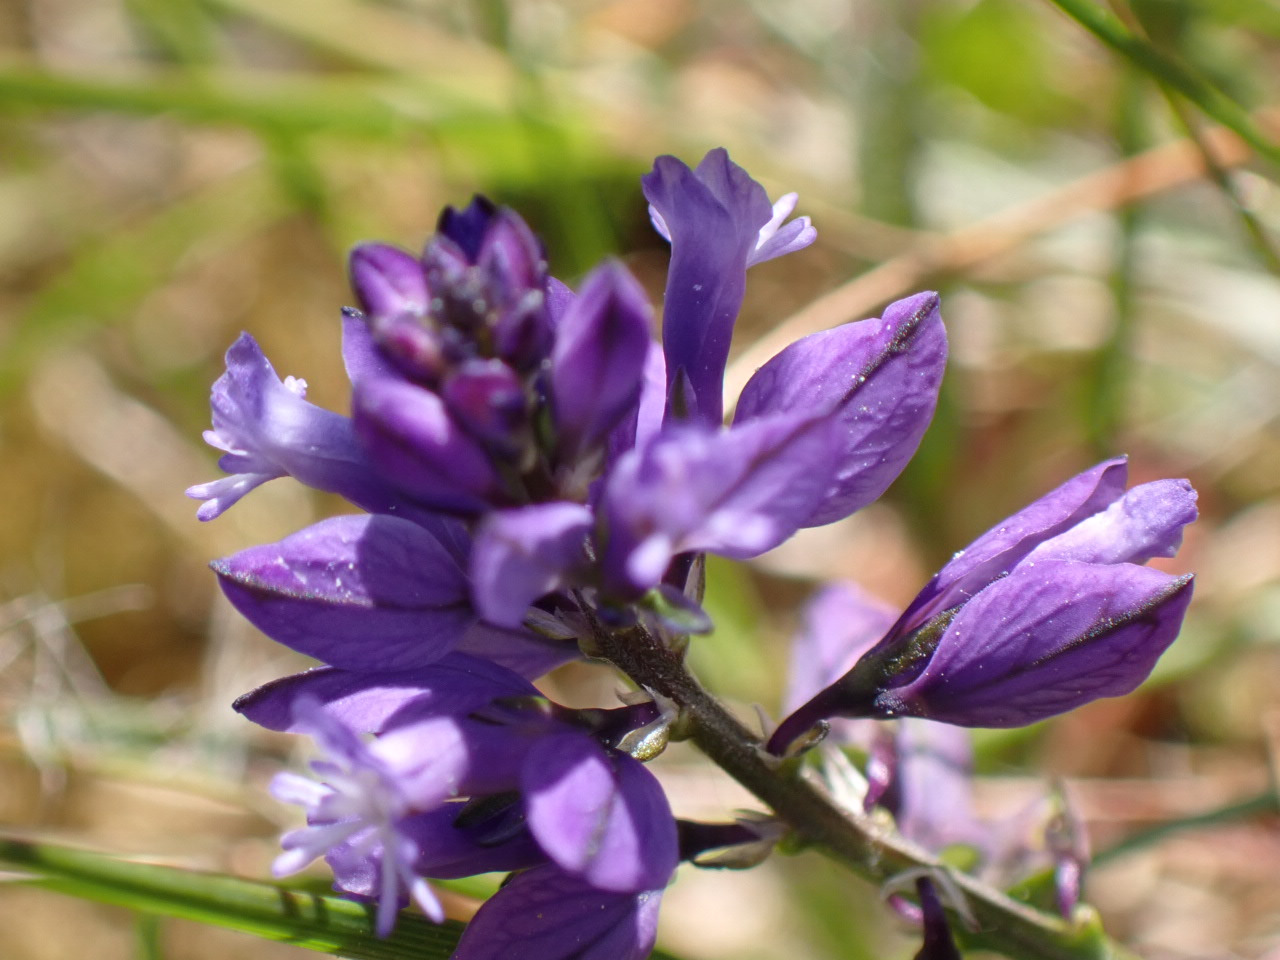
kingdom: Plantae
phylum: Tracheophyta
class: Magnoliopsida
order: Fabales
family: Polygalaceae
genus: Polygala
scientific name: Polygala vulgaris
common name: Almindelig mælkeurt
